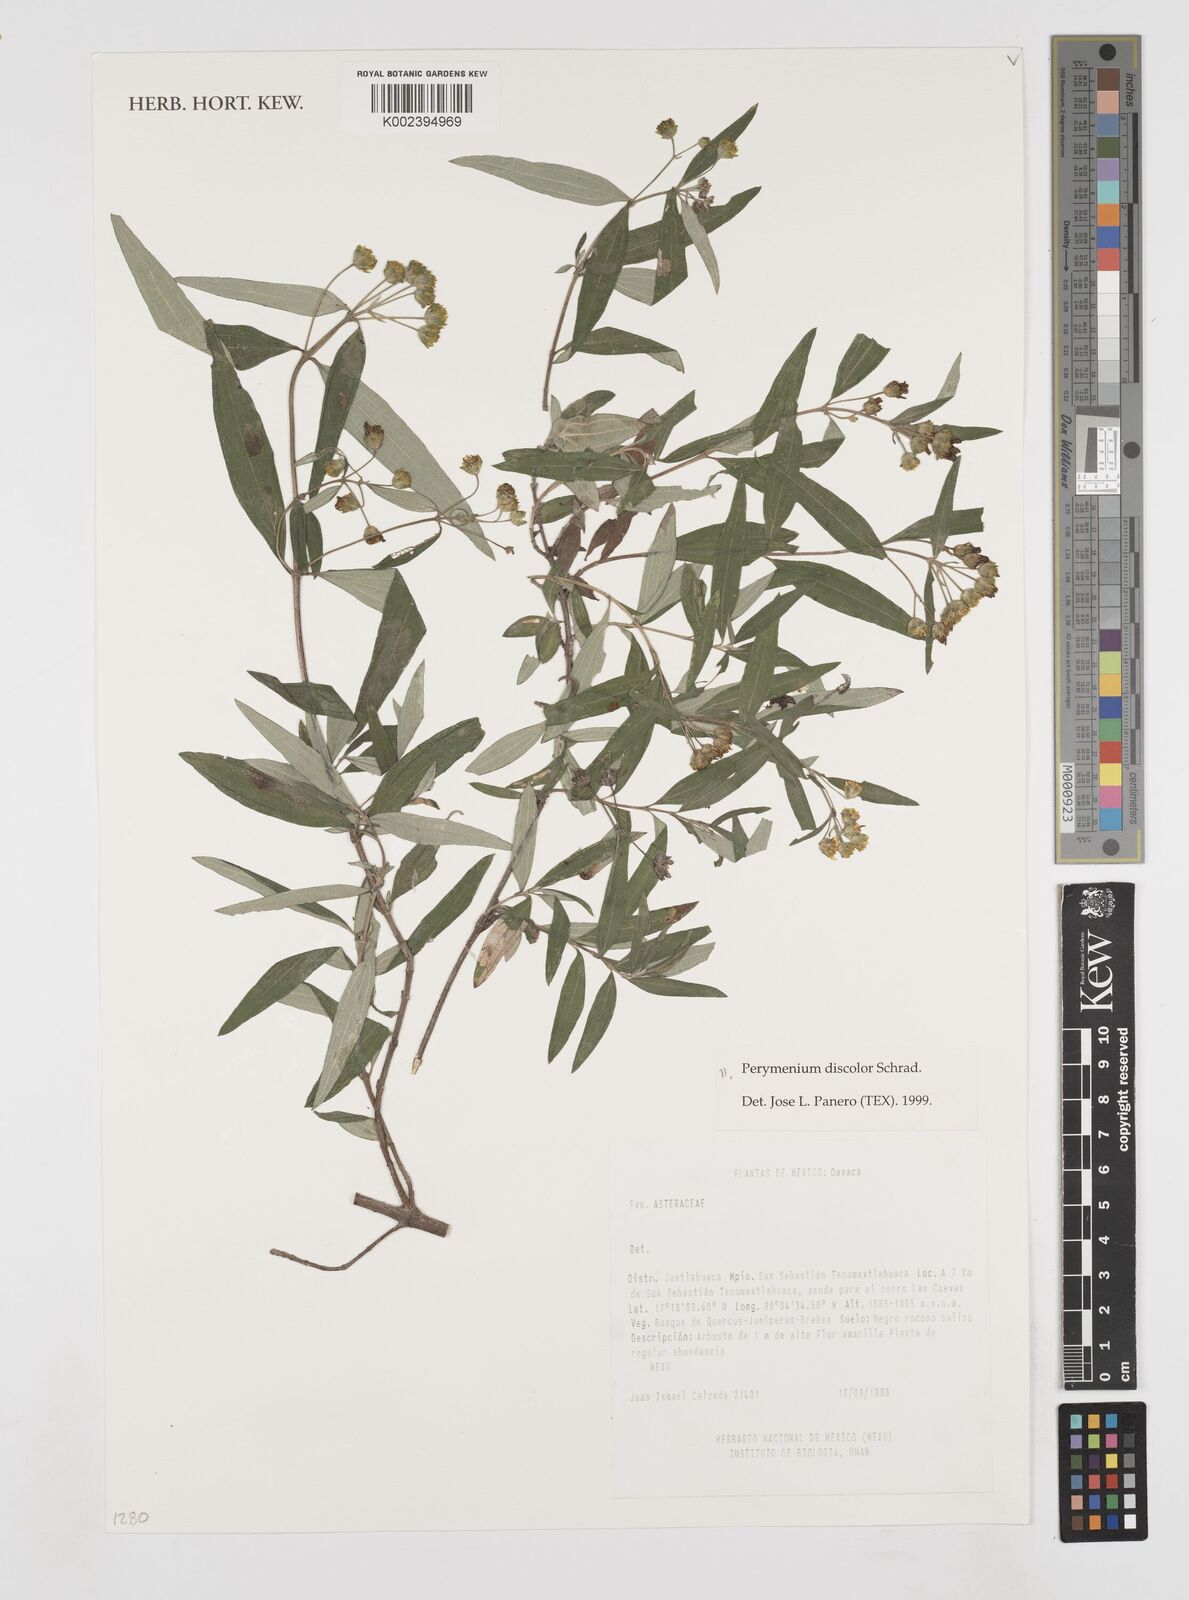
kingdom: Plantae
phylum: Tracheophyta
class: Magnoliopsida
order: Asterales
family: Asteraceae
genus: Perymenium
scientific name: Perymenium discolor
